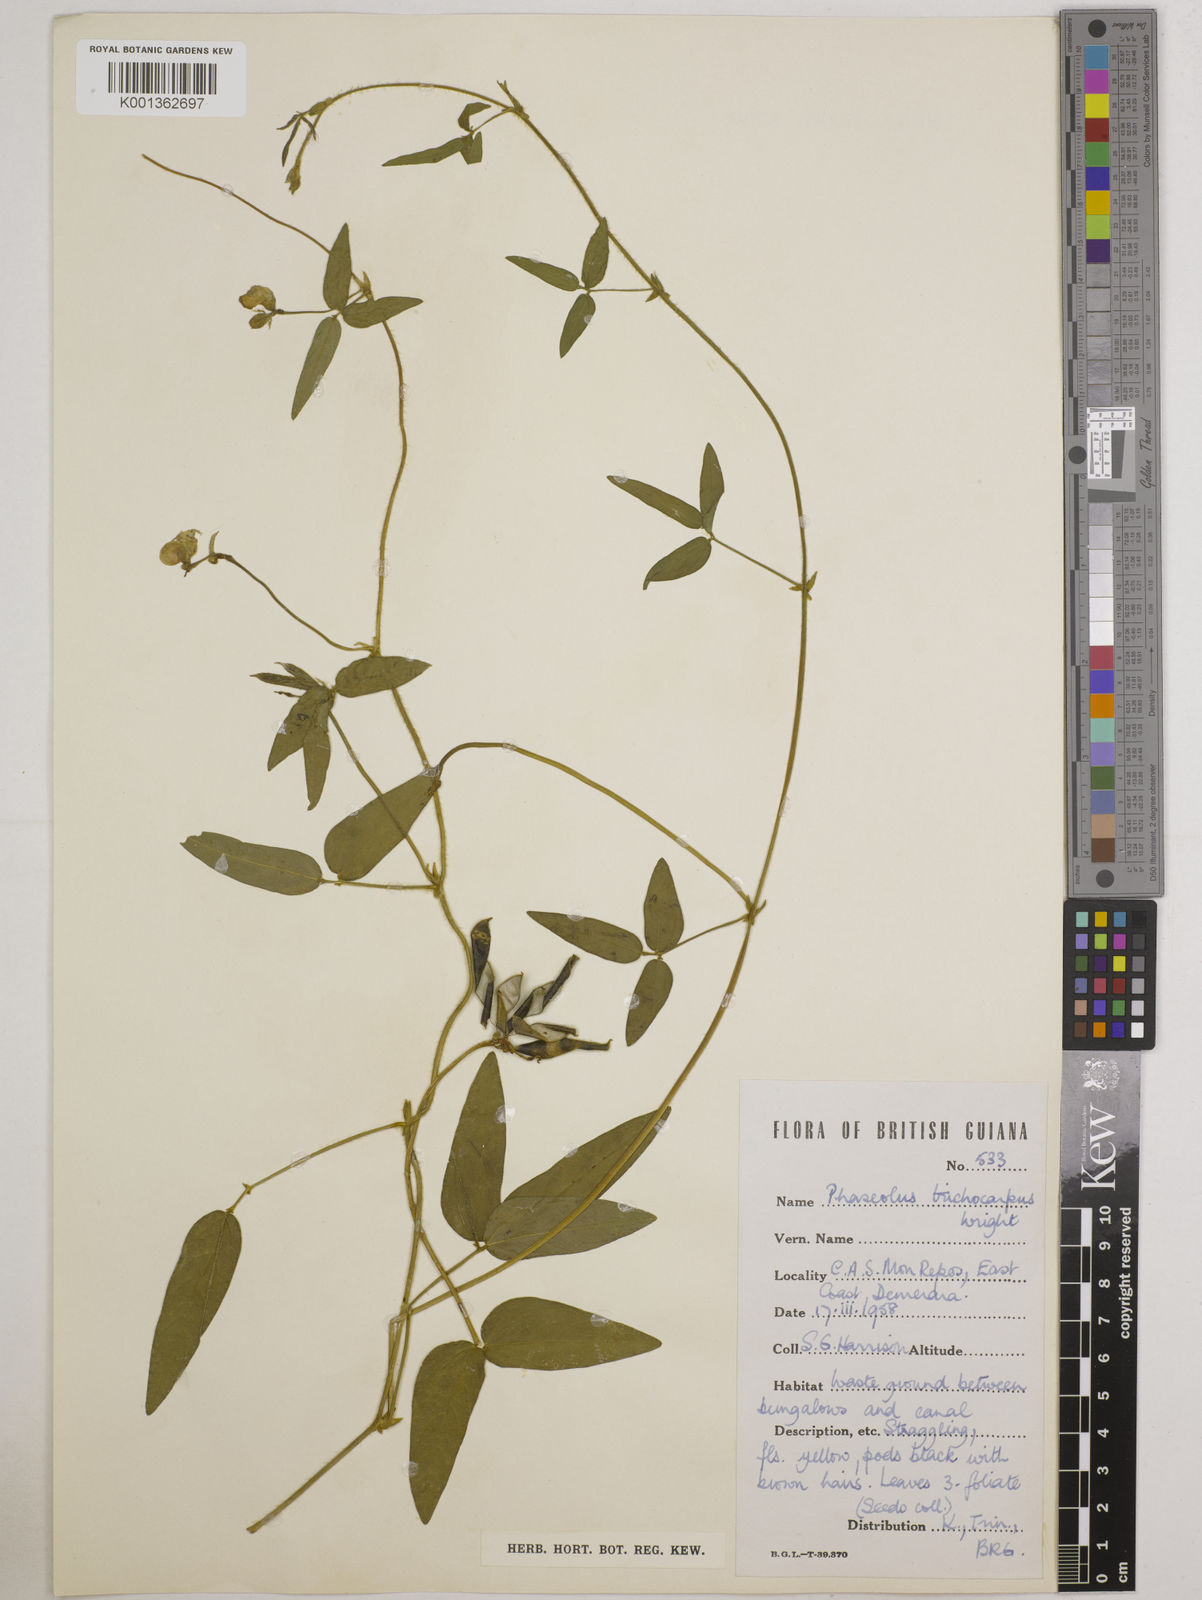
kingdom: Plantae
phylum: Tracheophyta
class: Magnoliopsida
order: Fabales
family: Fabaceae
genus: Vigna
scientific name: Vigna trichocarpa
